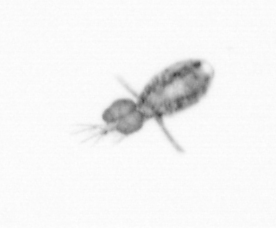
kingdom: Animalia
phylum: Arthropoda
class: Copepoda
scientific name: Copepoda
